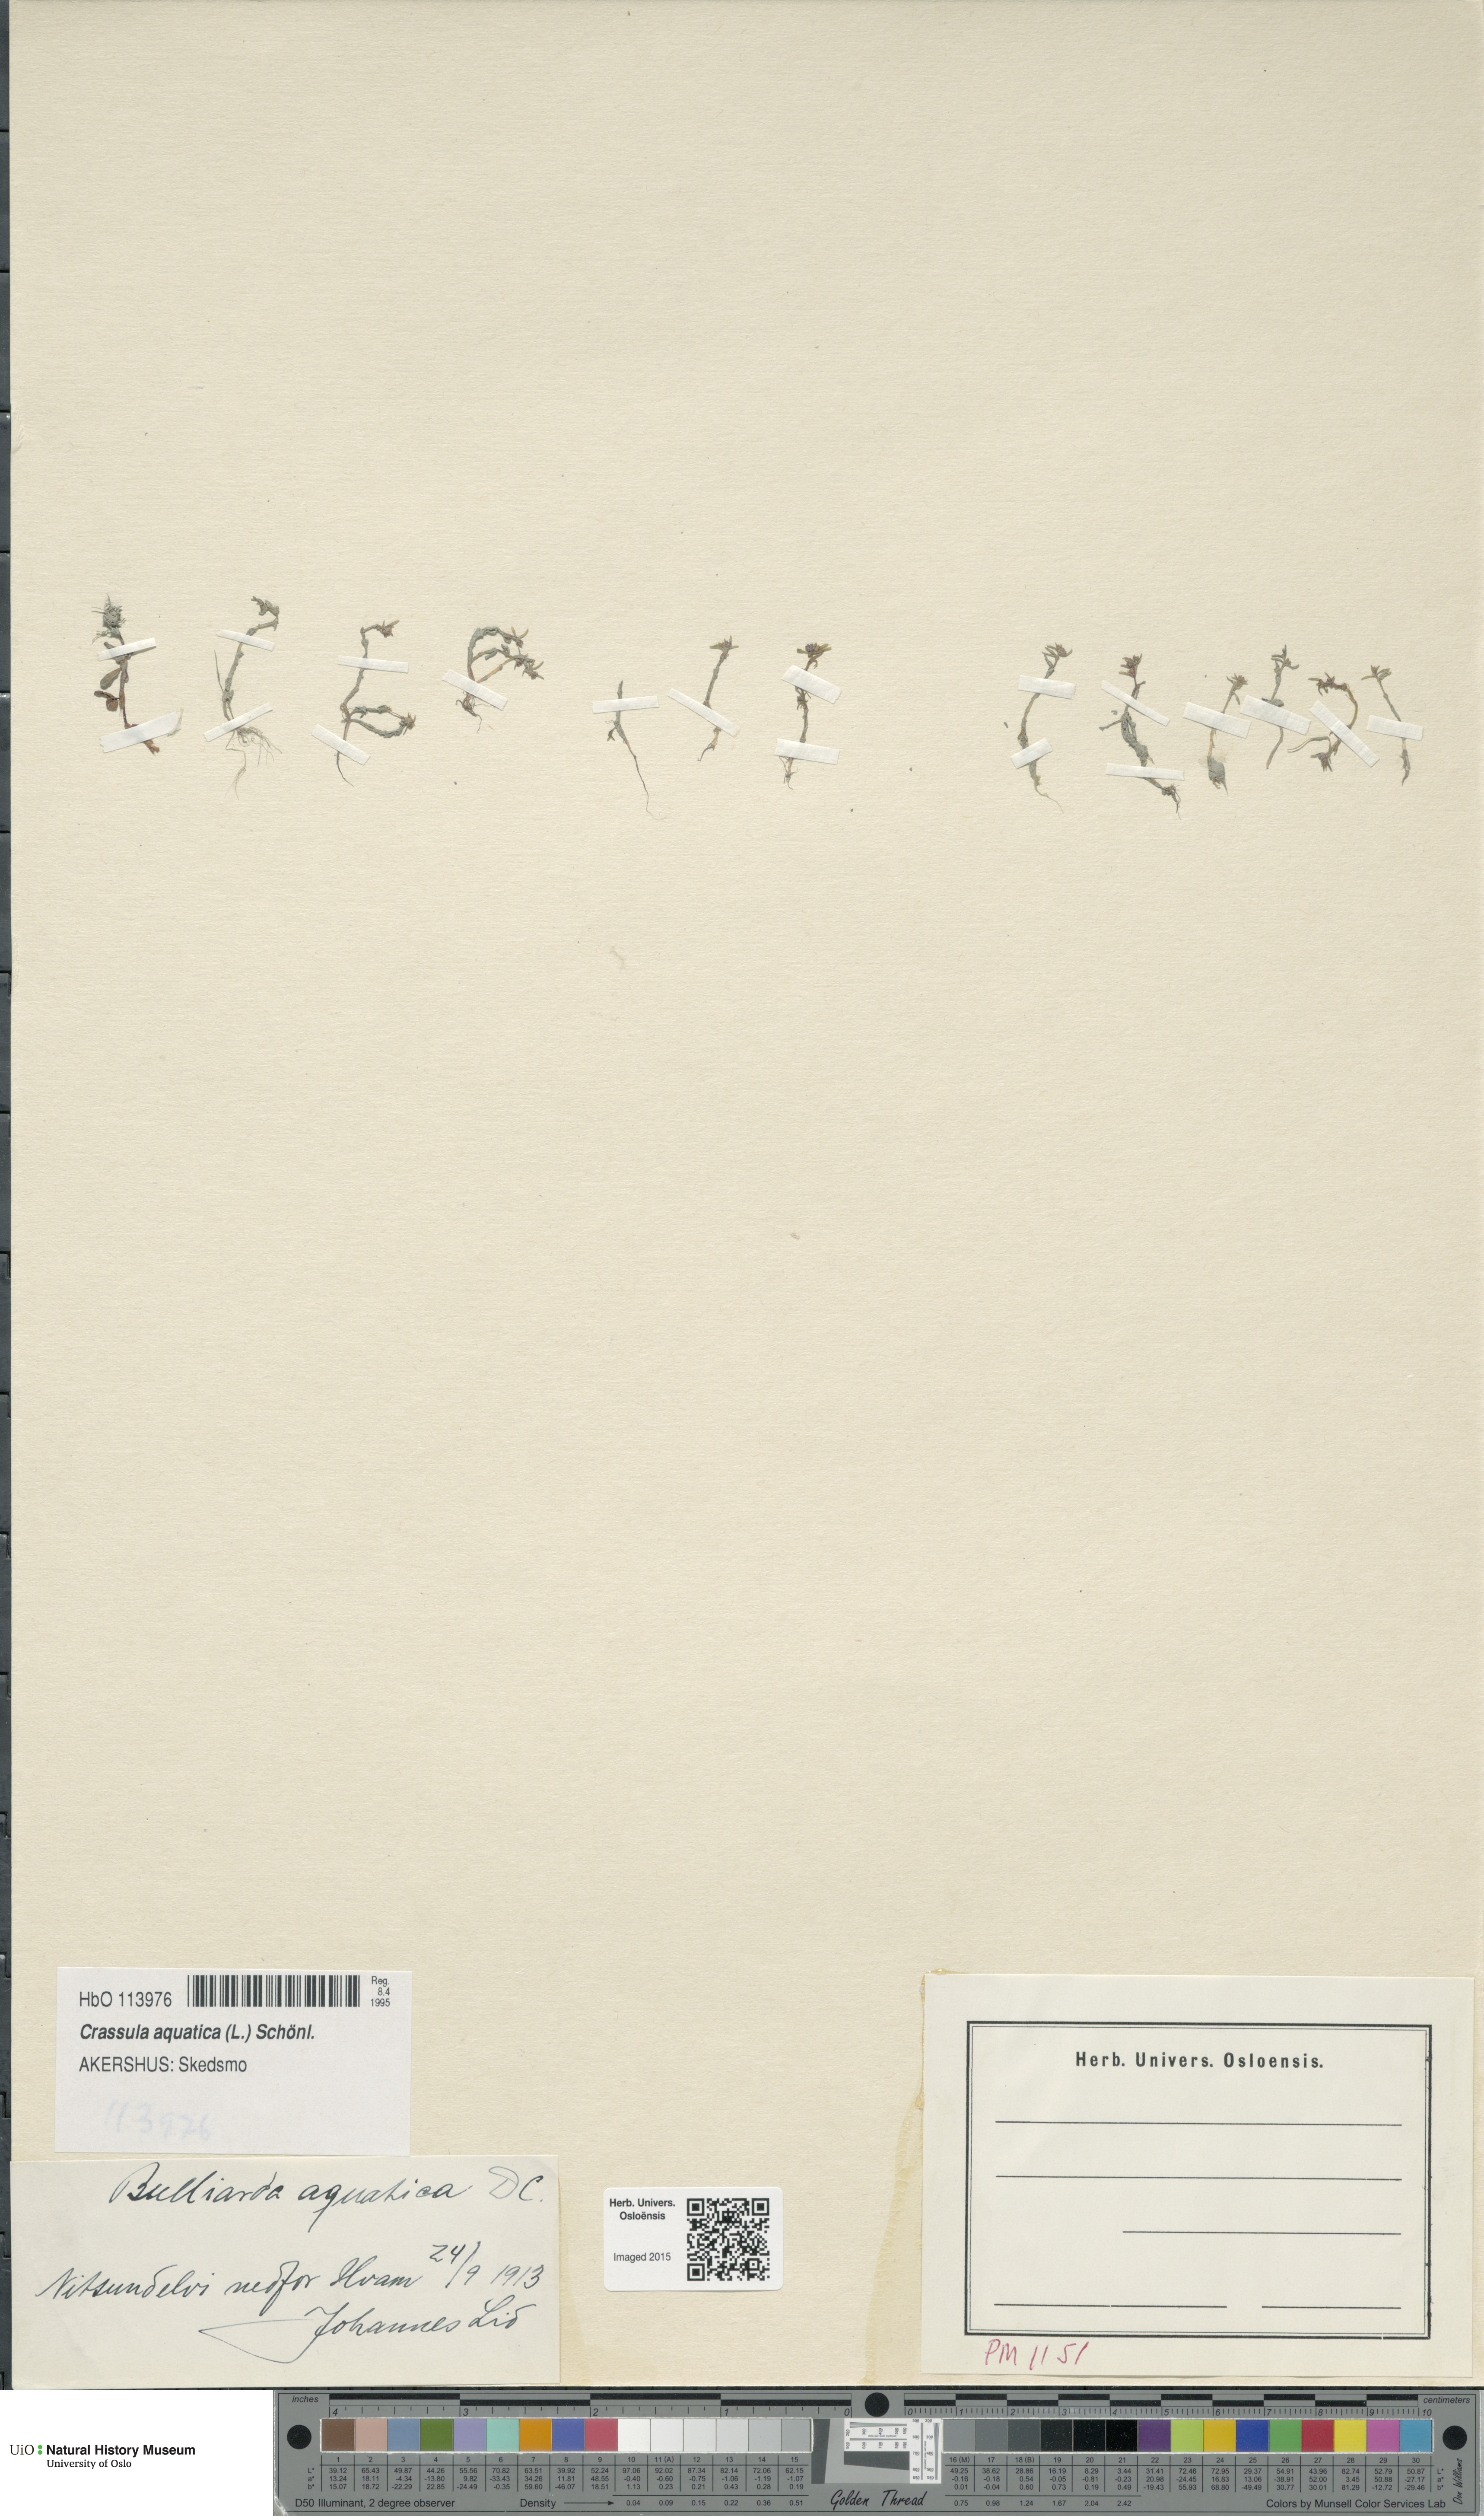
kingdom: Plantae
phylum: Tracheophyta
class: Magnoliopsida
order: Saxifragales
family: Crassulaceae
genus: Crassula
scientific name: Crassula aquatica
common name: Pigmyweed
